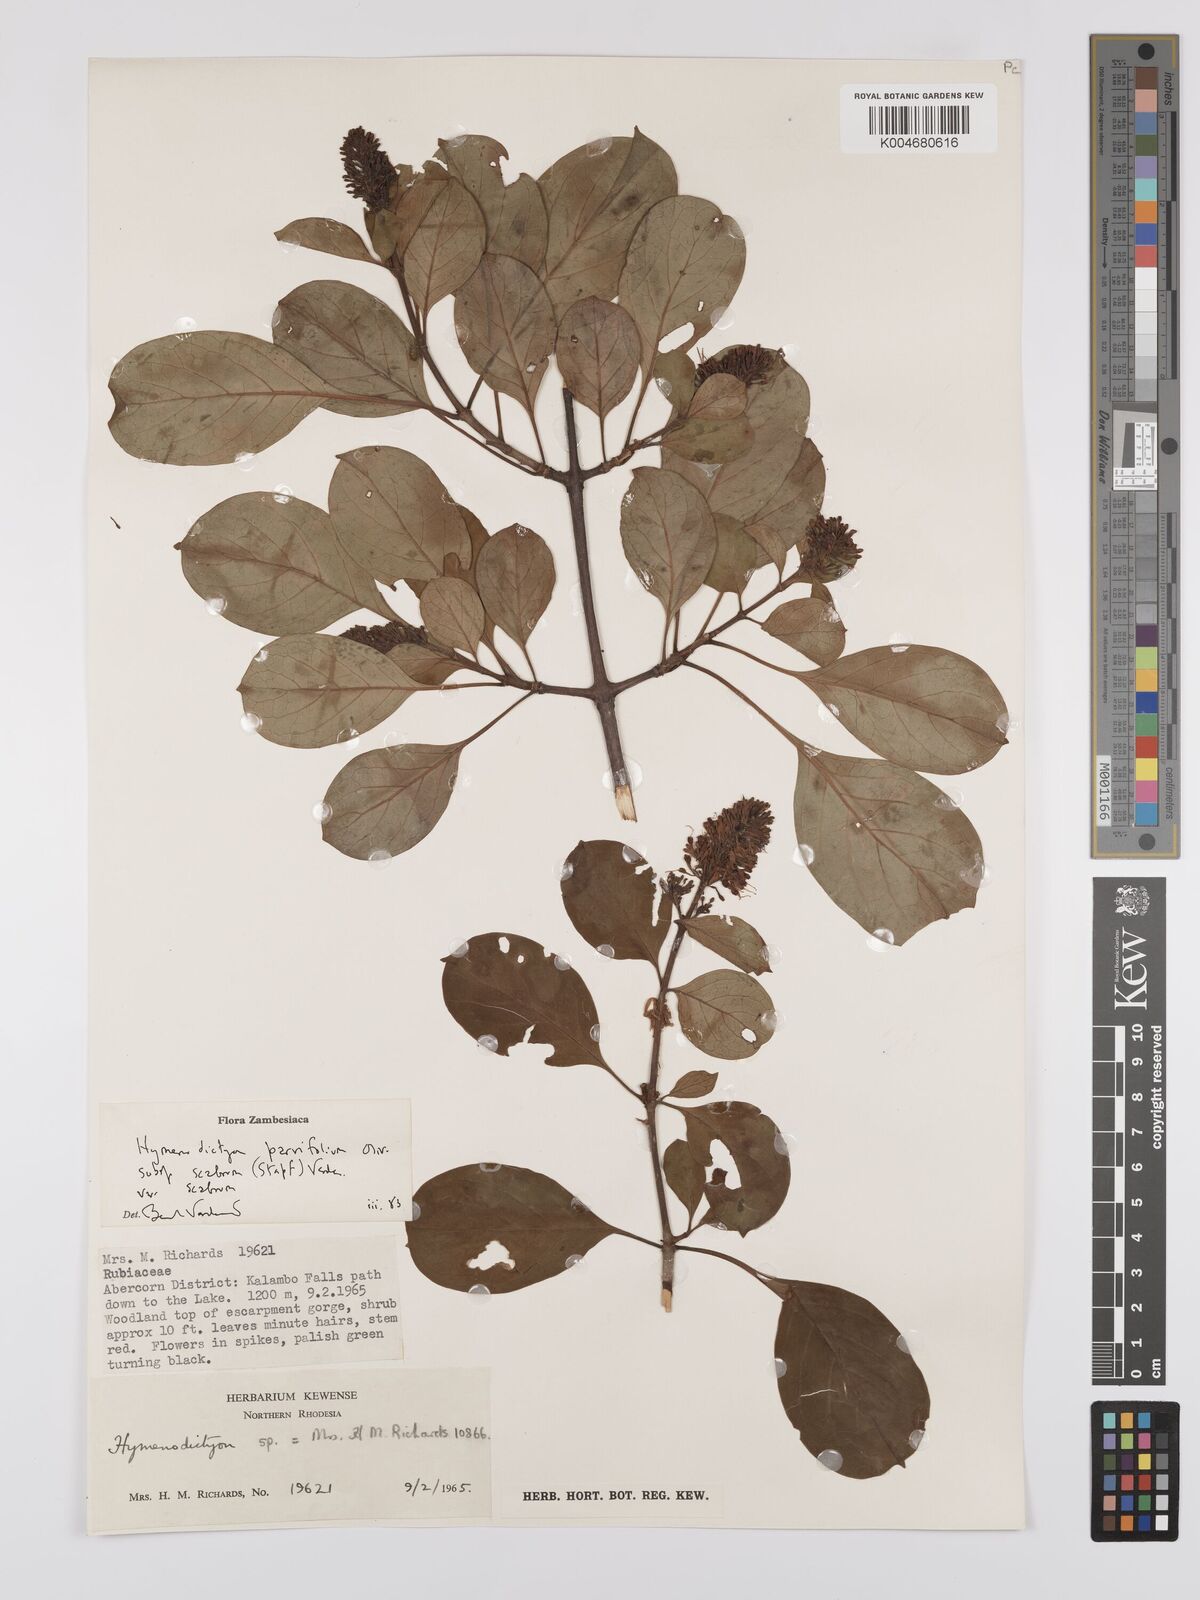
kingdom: Plantae
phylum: Tracheophyta
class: Magnoliopsida
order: Gentianales
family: Rubiaceae
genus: Hymenodictyon
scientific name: Hymenodictyon scabrum
